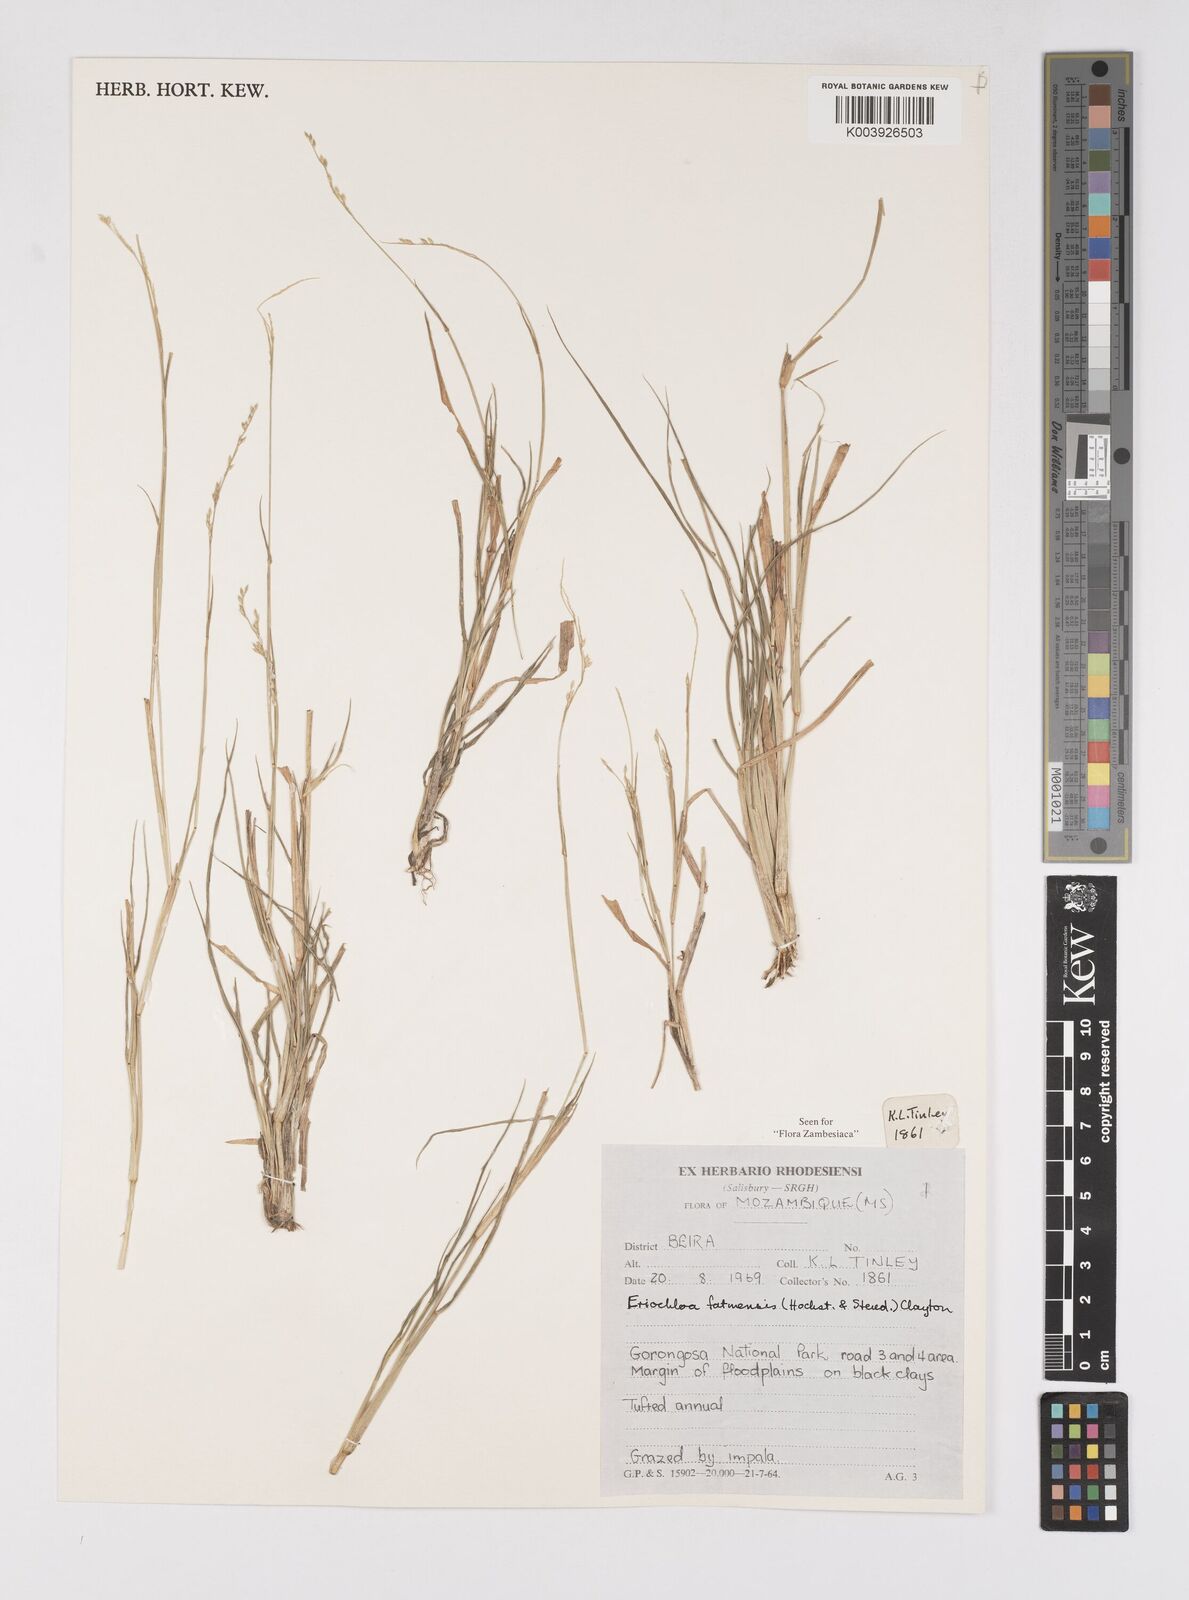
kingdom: Plantae
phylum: Tracheophyta
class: Liliopsida
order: Poales
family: Poaceae
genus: Eriochloa
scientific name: Eriochloa barbatus
